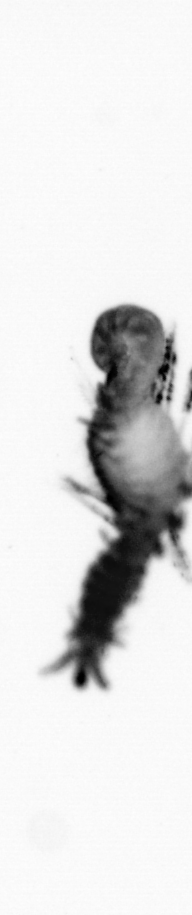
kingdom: Animalia
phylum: Annelida
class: Polychaeta
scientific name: Polychaeta
